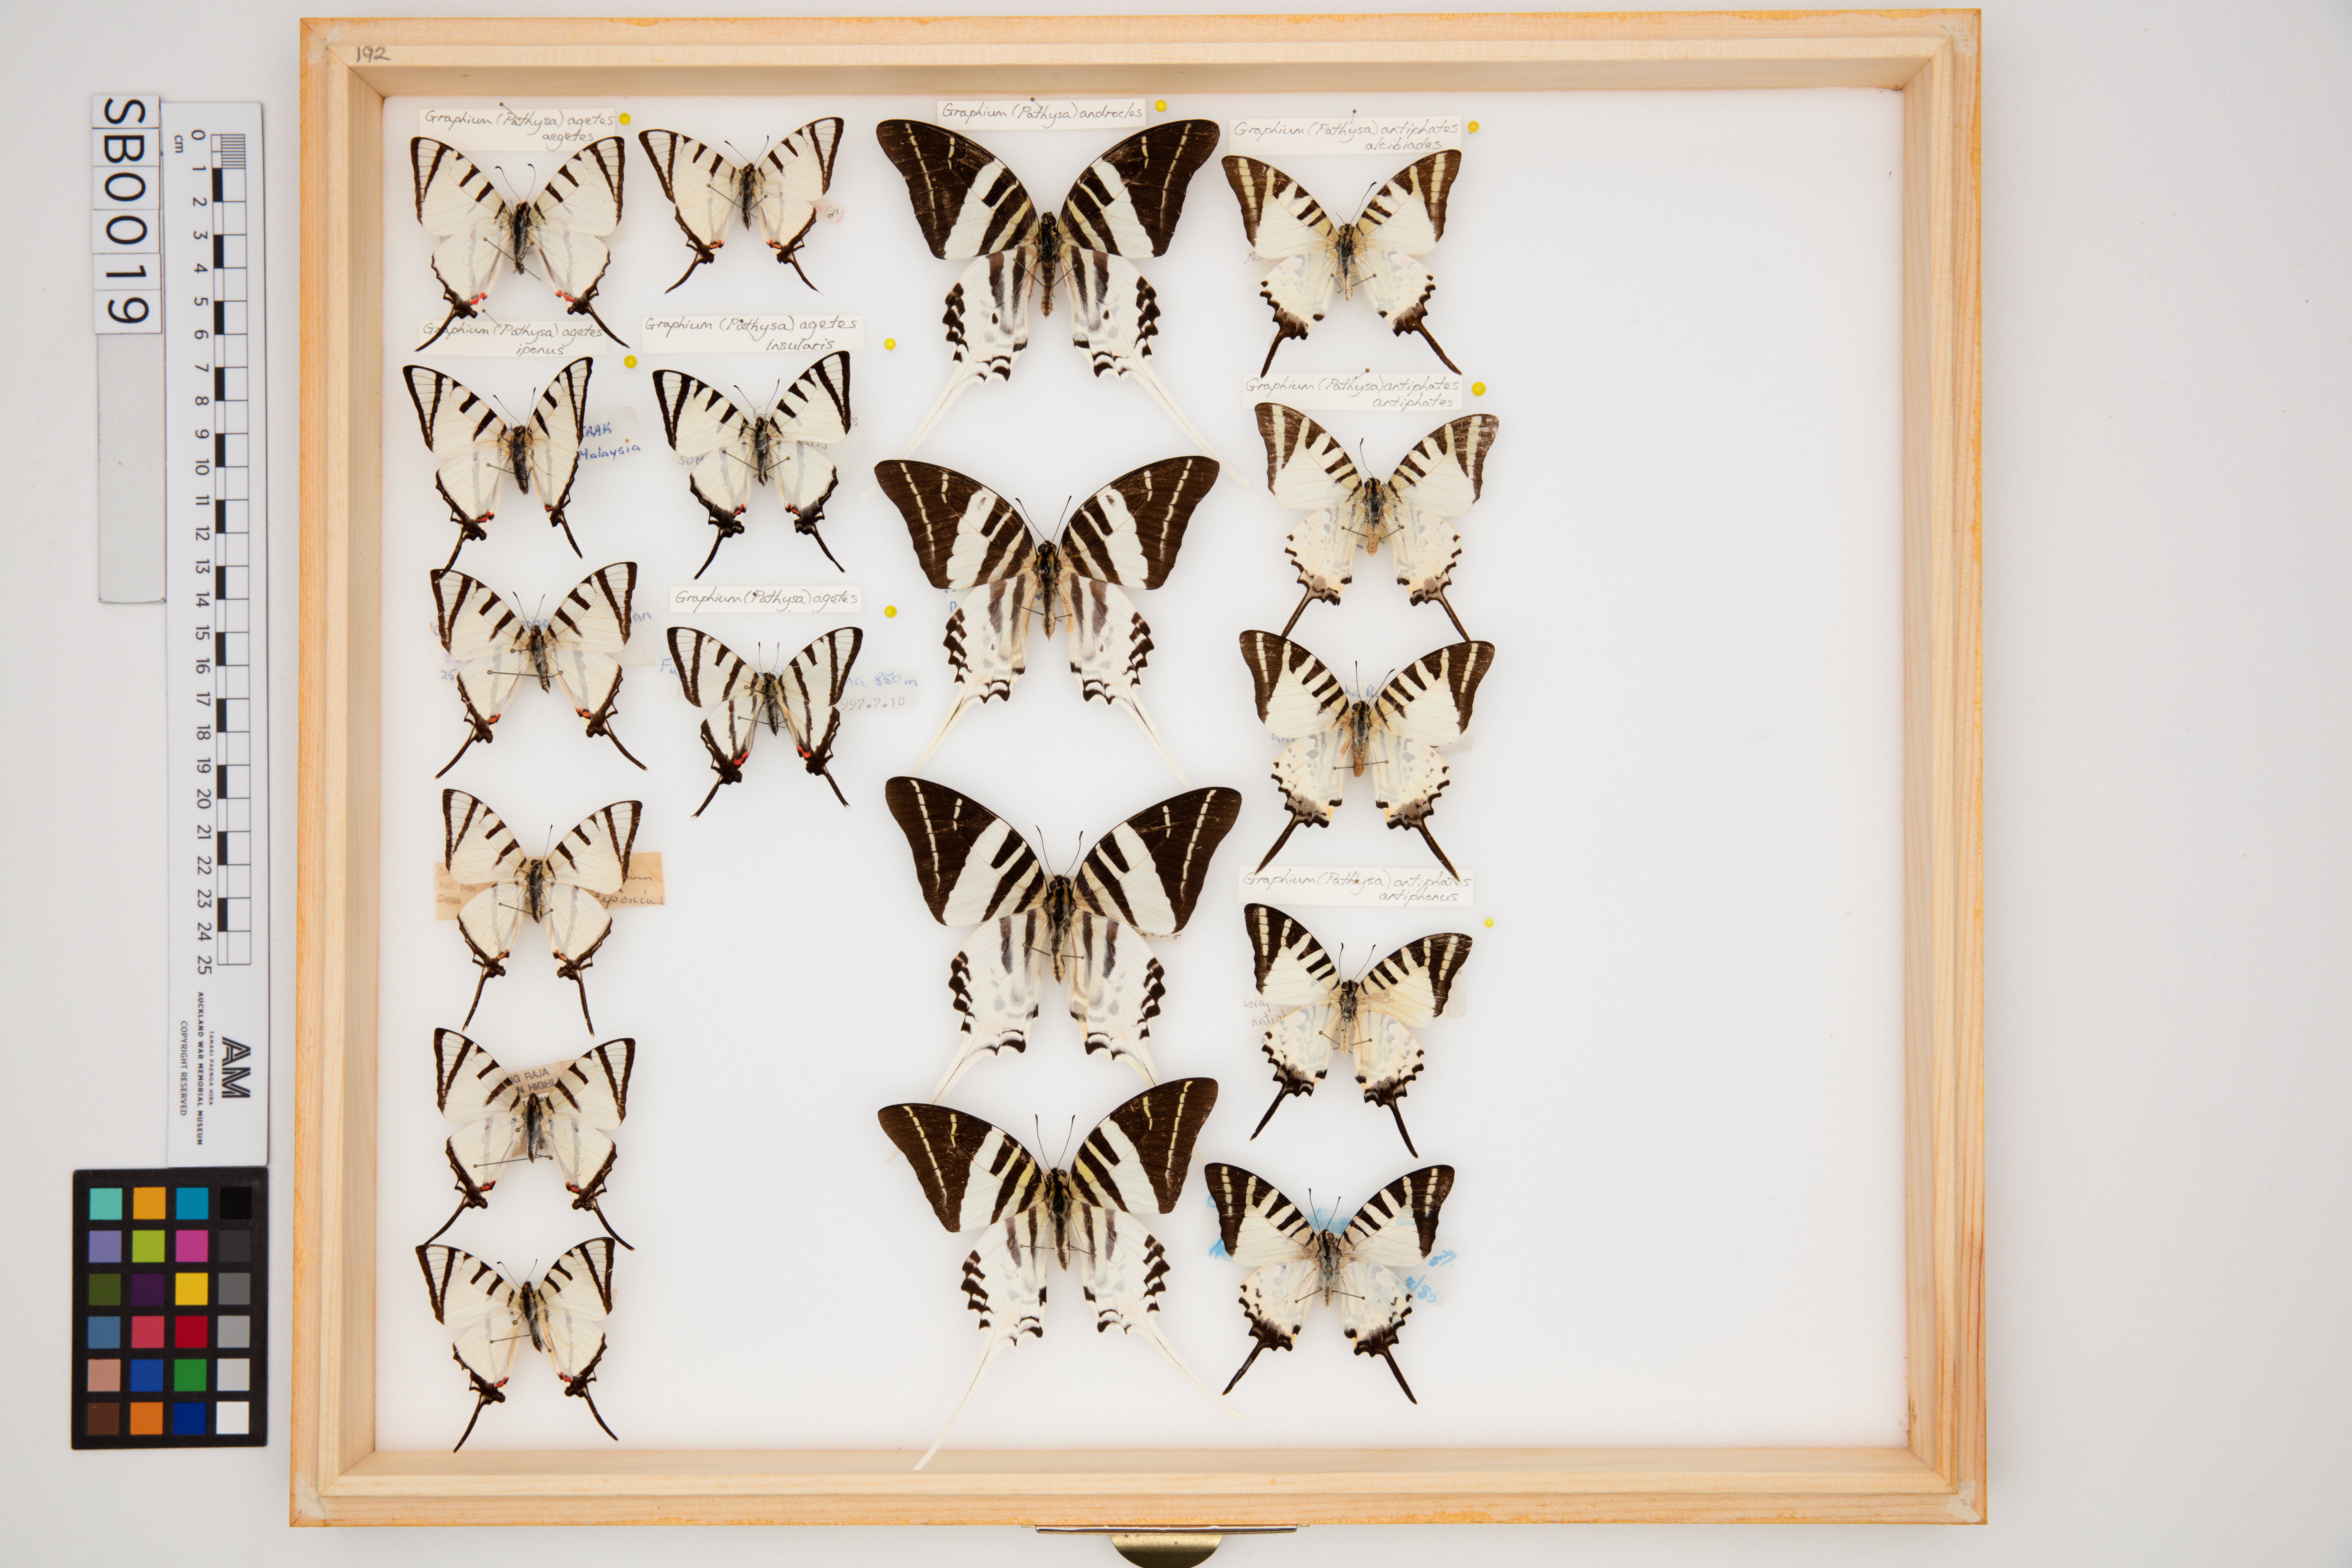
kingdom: Animalia
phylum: Arthropoda
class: Insecta
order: Lepidoptera
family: Papilionidae
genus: Graphium
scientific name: Graphium agetes
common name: Fourbar swordtail
